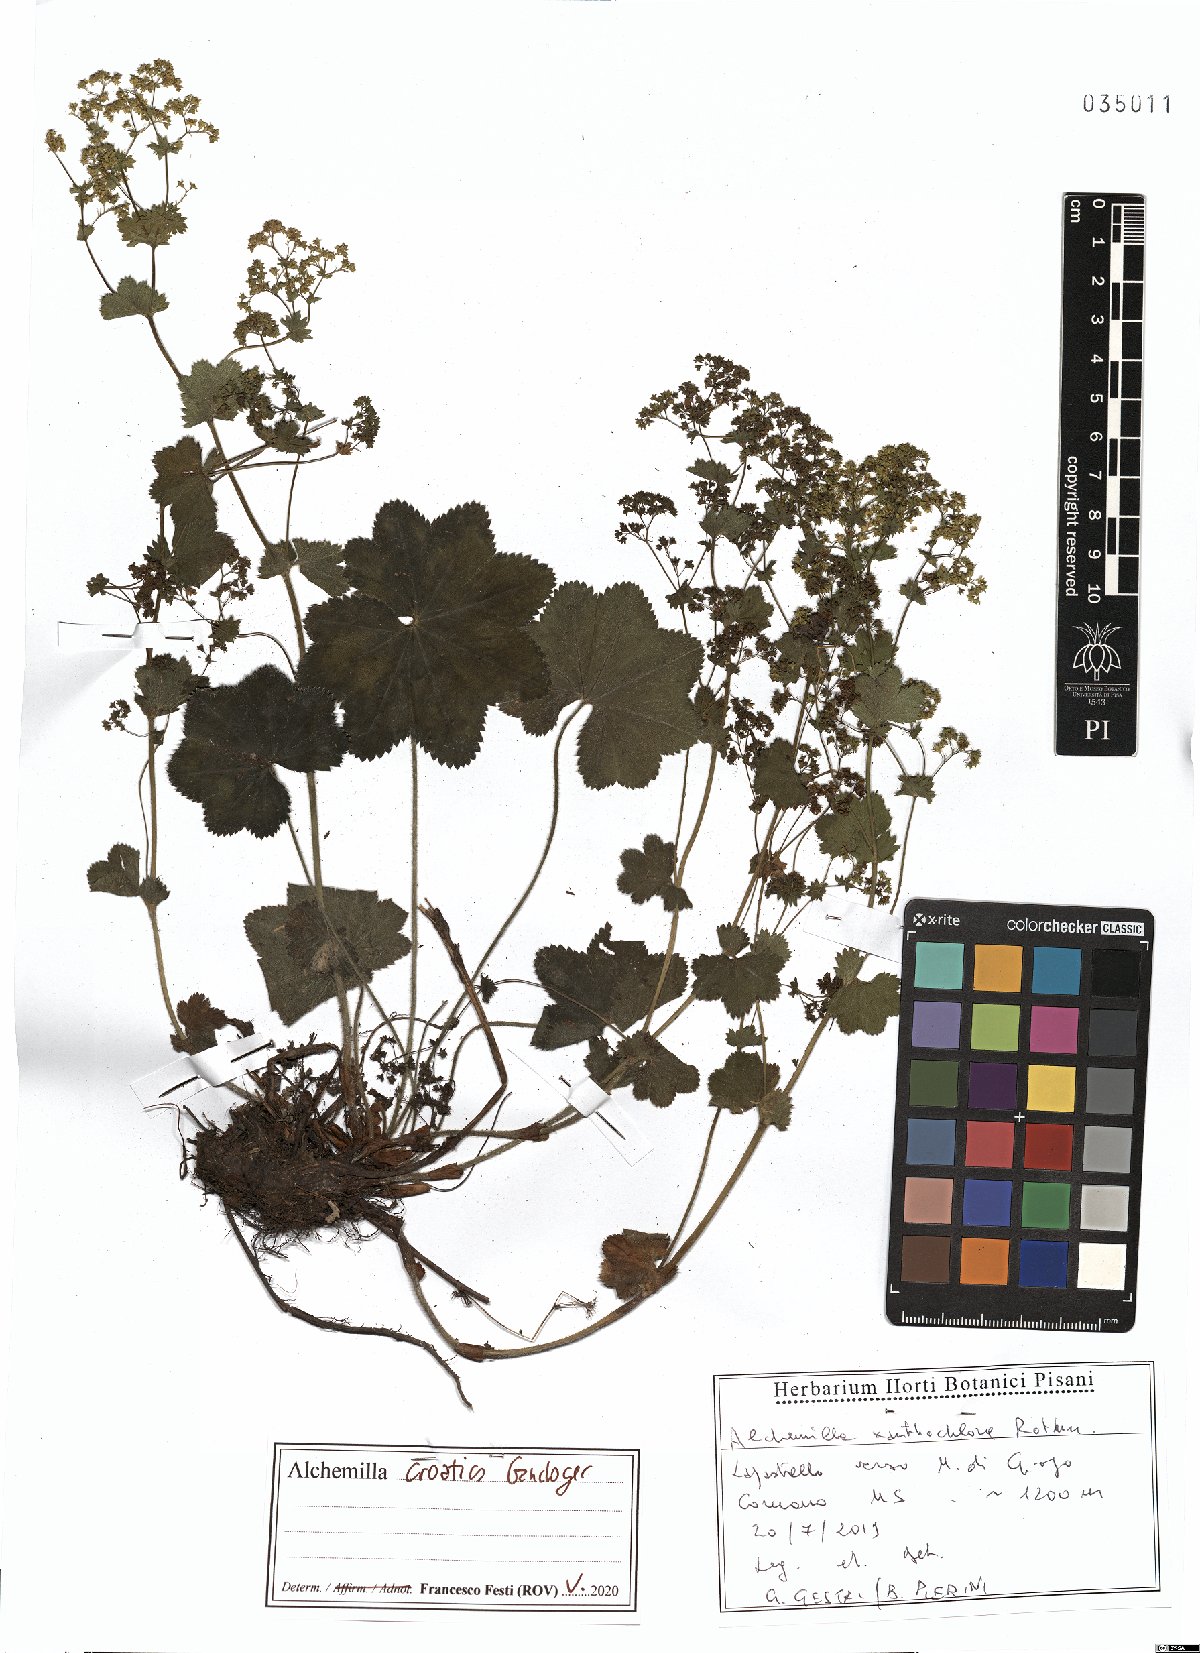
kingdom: Plantae
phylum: Tracheophyta
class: Magnoliopsida
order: Rosales
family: Rosaceae
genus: Alchemilla
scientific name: Alchemilla croatica
